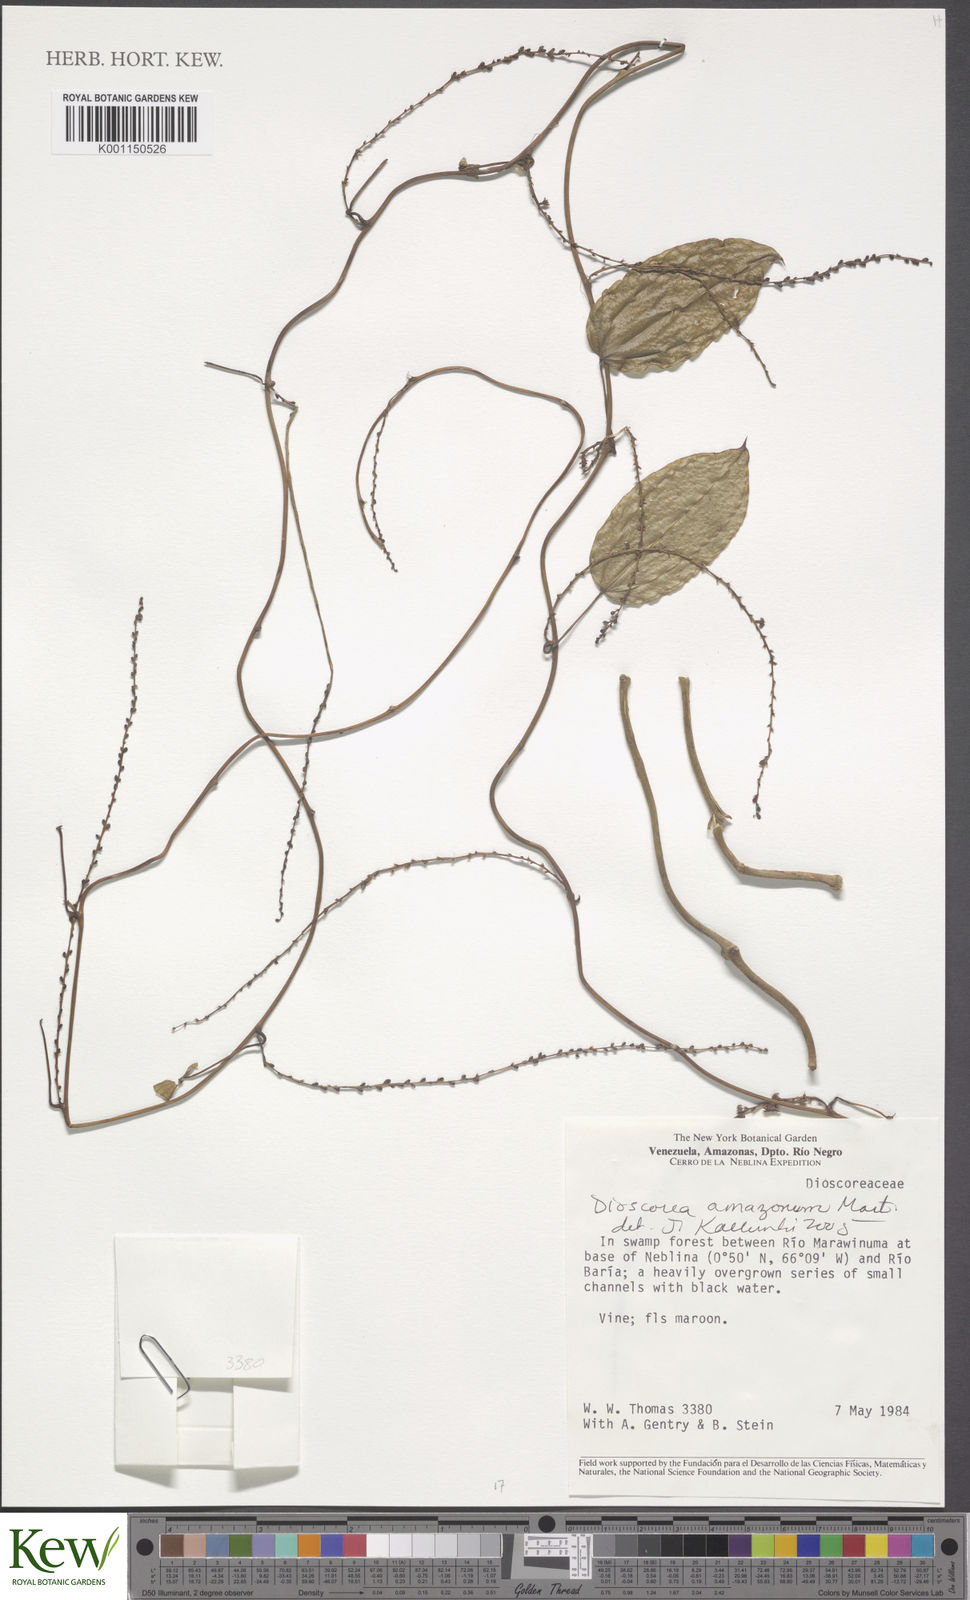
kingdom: Plantae
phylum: Tracheophyta
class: Liliopsida
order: Dioscoreales
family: Dioscoreaceae
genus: Dioscorea
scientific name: Dioscorea amazonum
